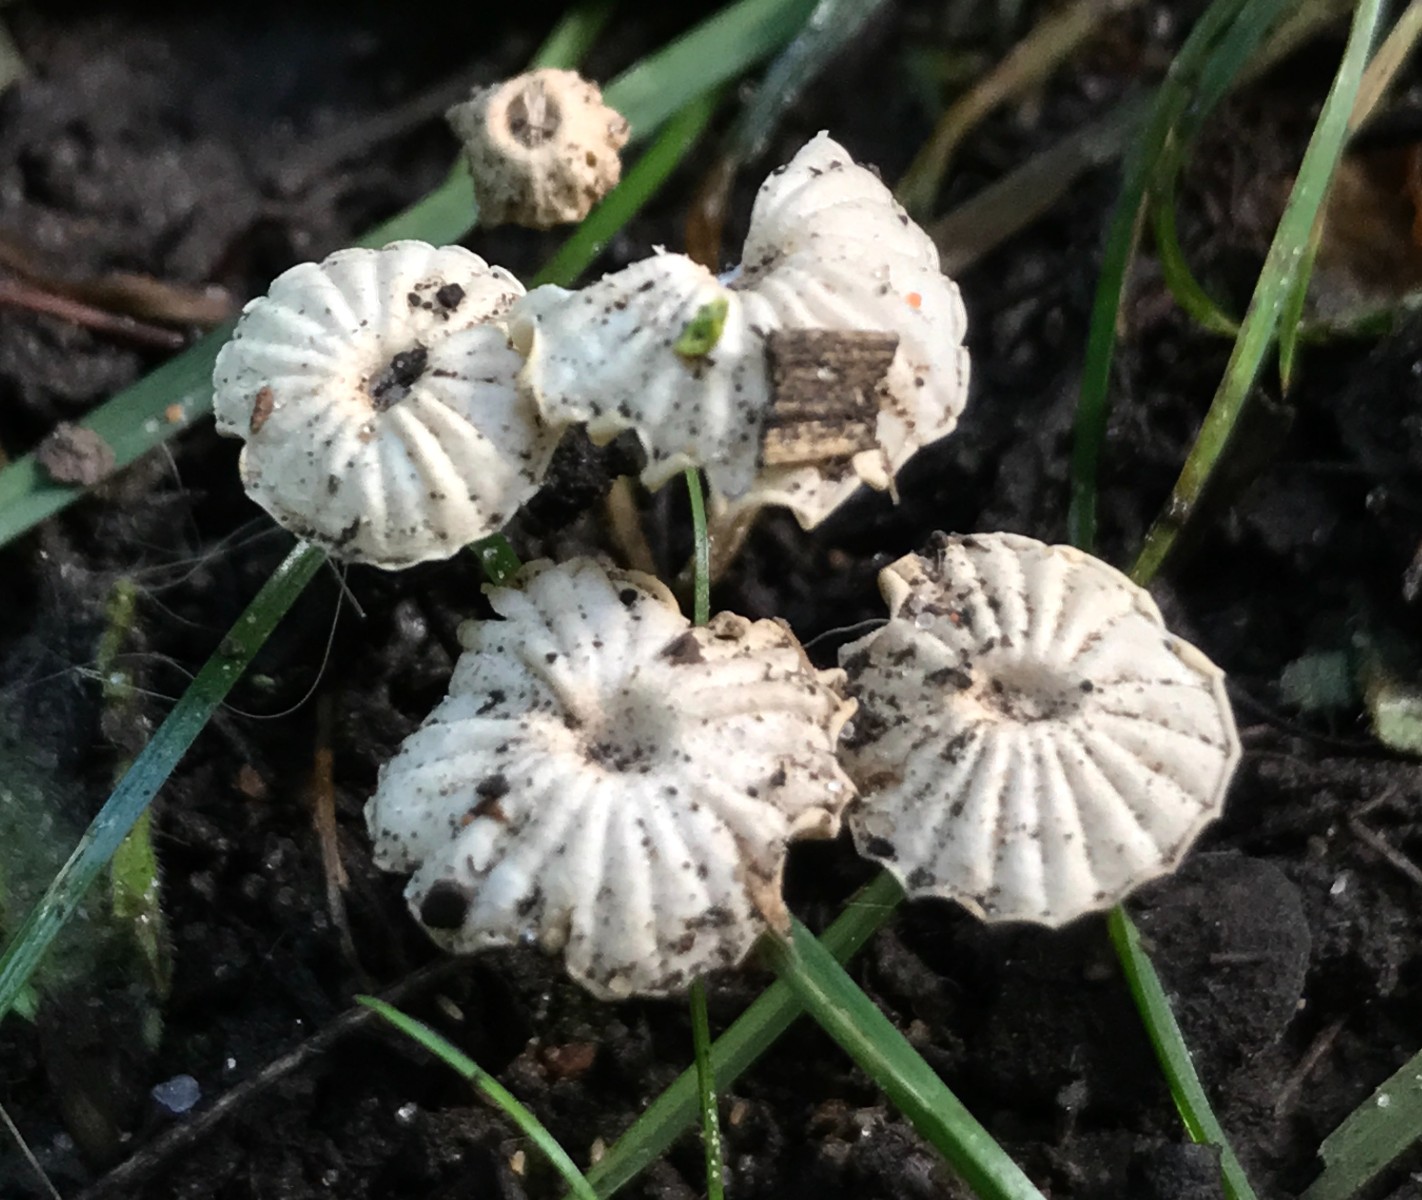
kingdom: Fungi
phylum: Basidiomycota
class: Agaricomycetes
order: Agaricales
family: Marasmiaceae
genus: Marasmius
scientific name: Marasmius rotula
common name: hjul-bruskhat
